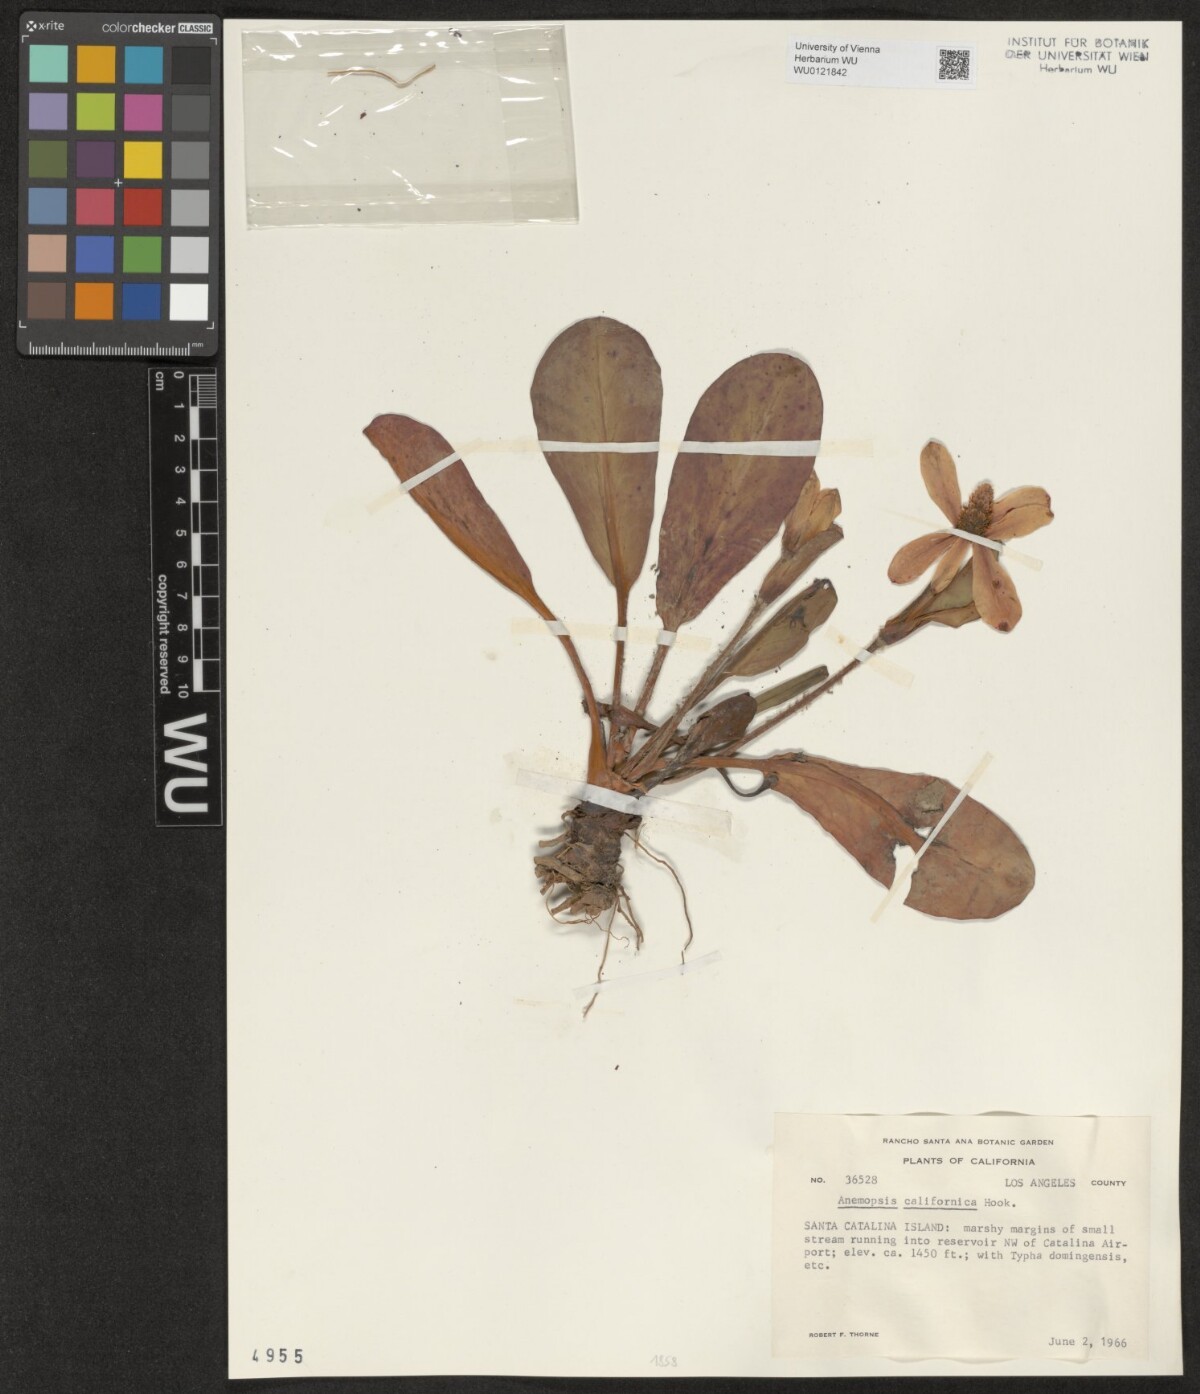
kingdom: Plantae
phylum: Tracheophyta
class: Magnoliopsida
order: Piperales
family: Saururaceae
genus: Anemopsis
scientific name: Anemopsis californica
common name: Apache-beads
